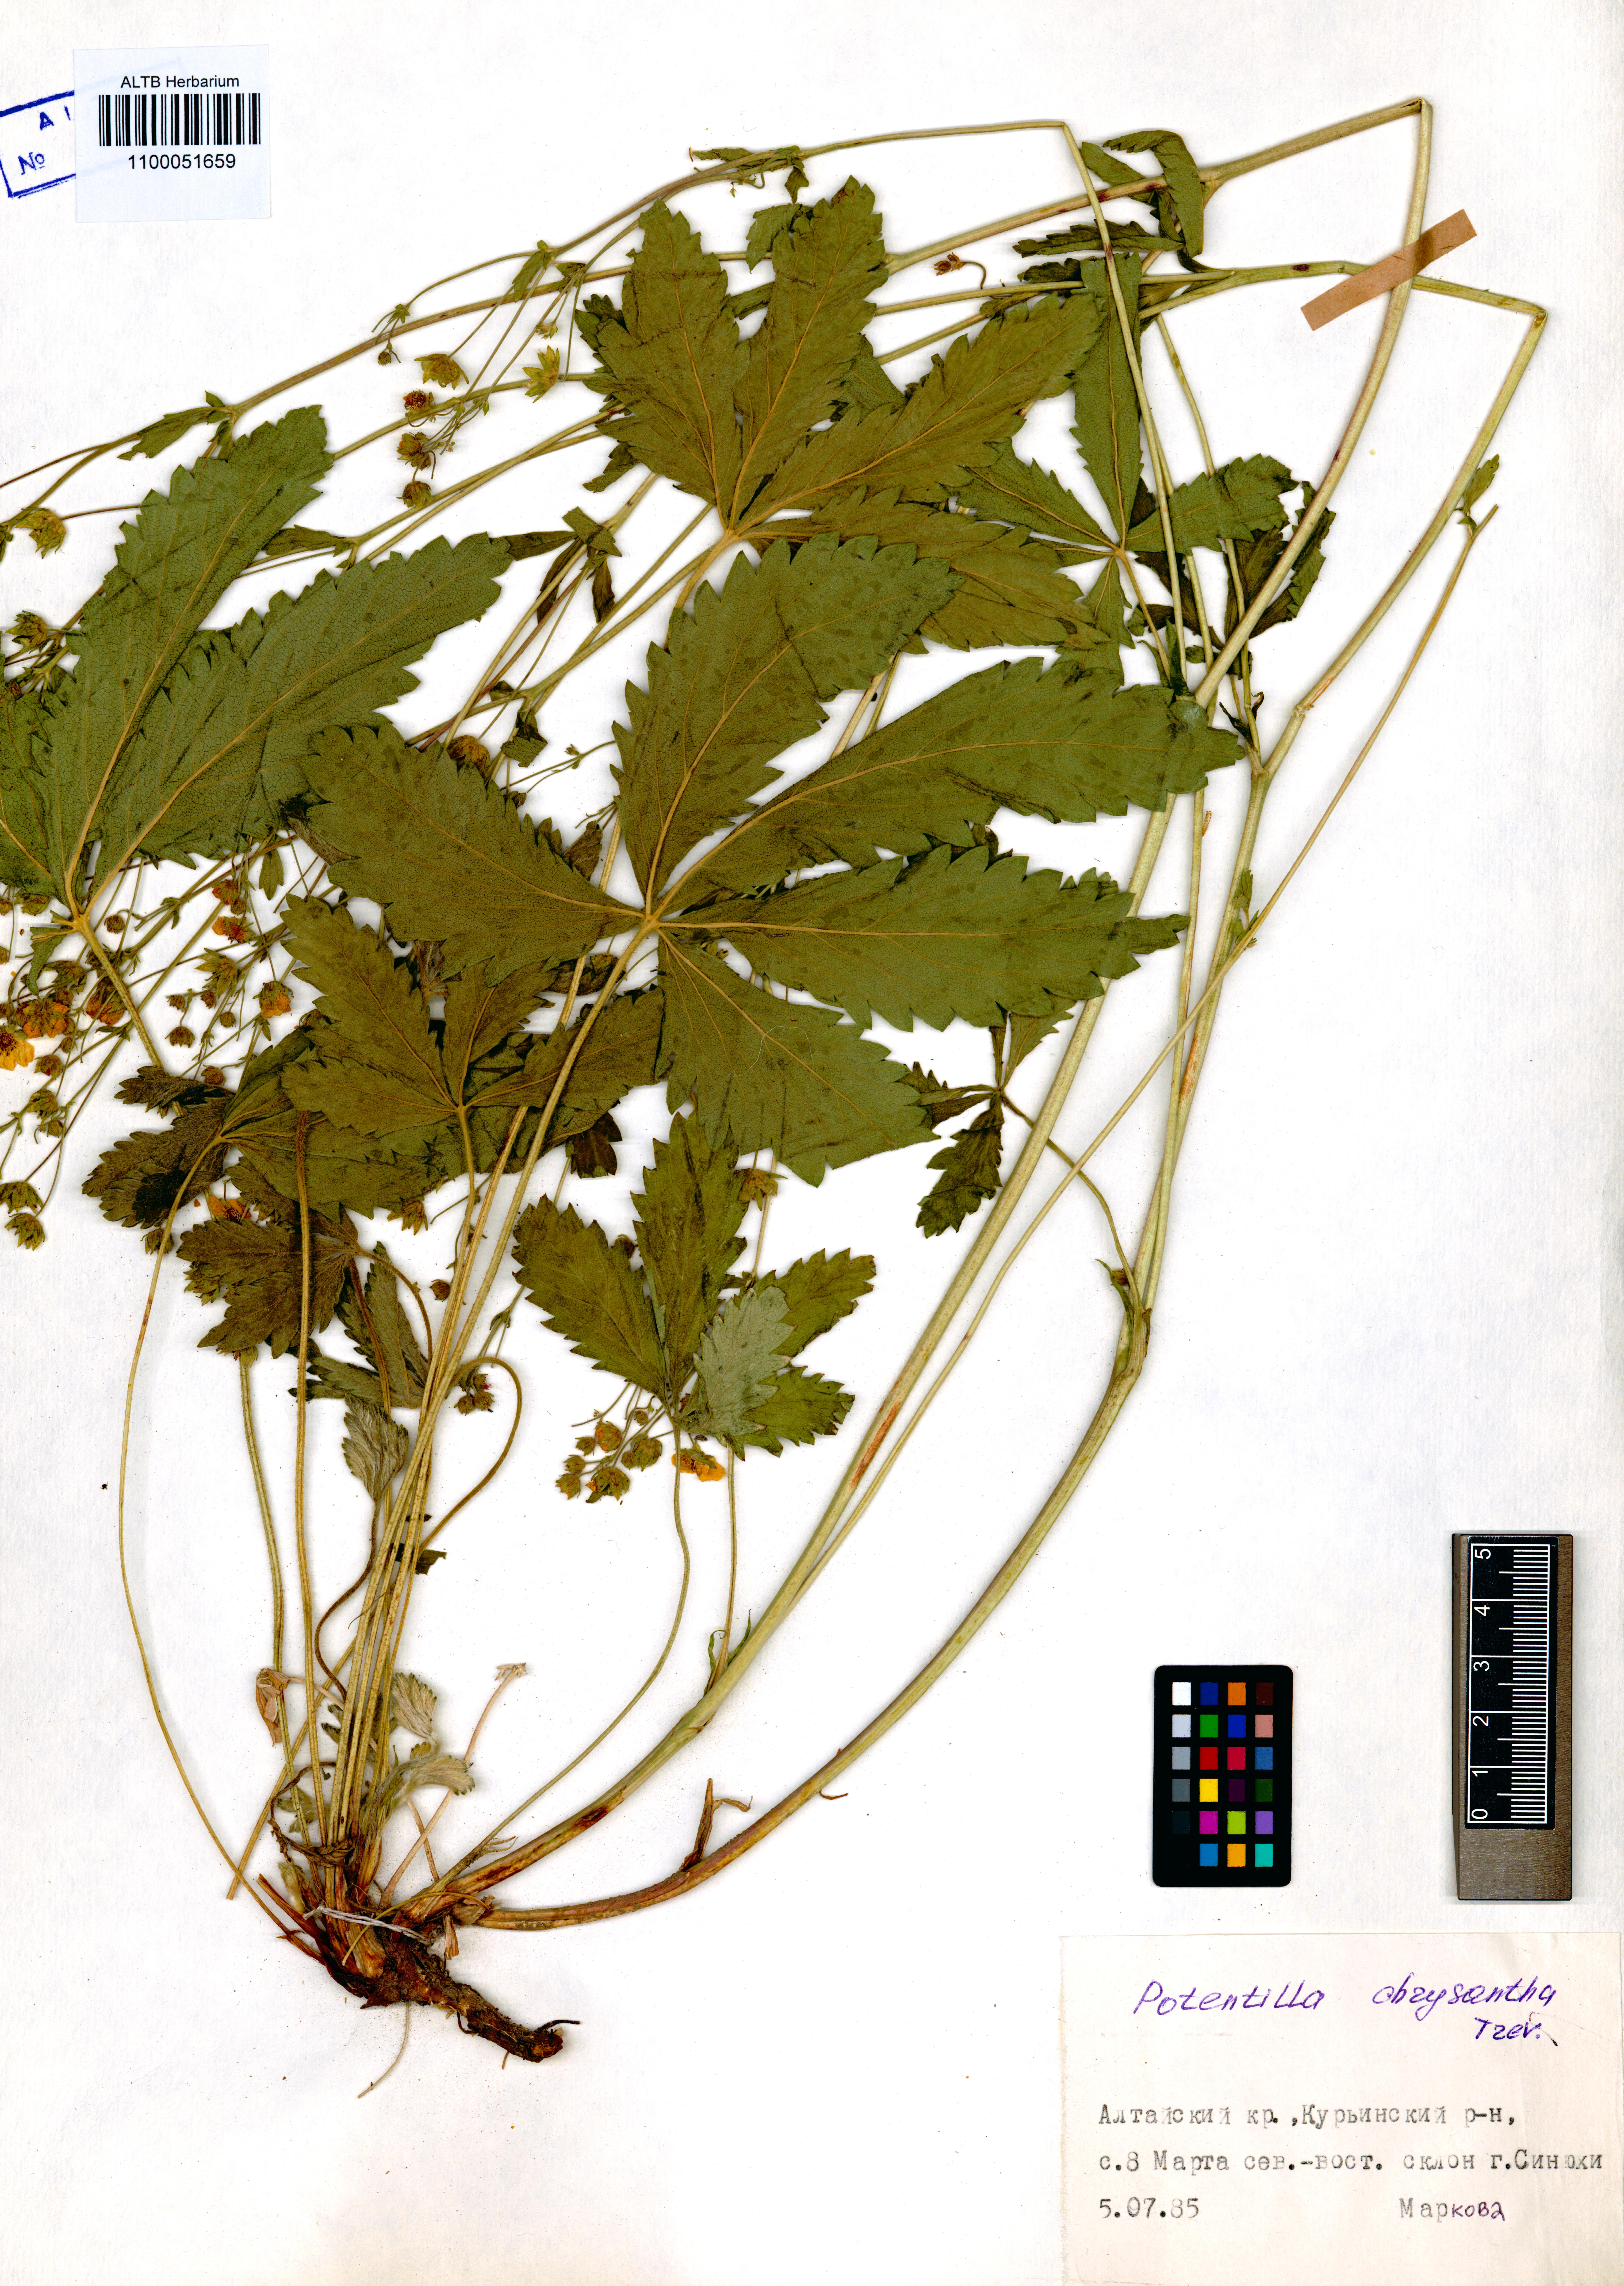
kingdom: Plantae
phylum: Tracheophyta
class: Magnoliopsida
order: Rosales
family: Rosaceae
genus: Potentilla
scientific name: Potentilla chrysantha
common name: Thuringian cinquefoil
